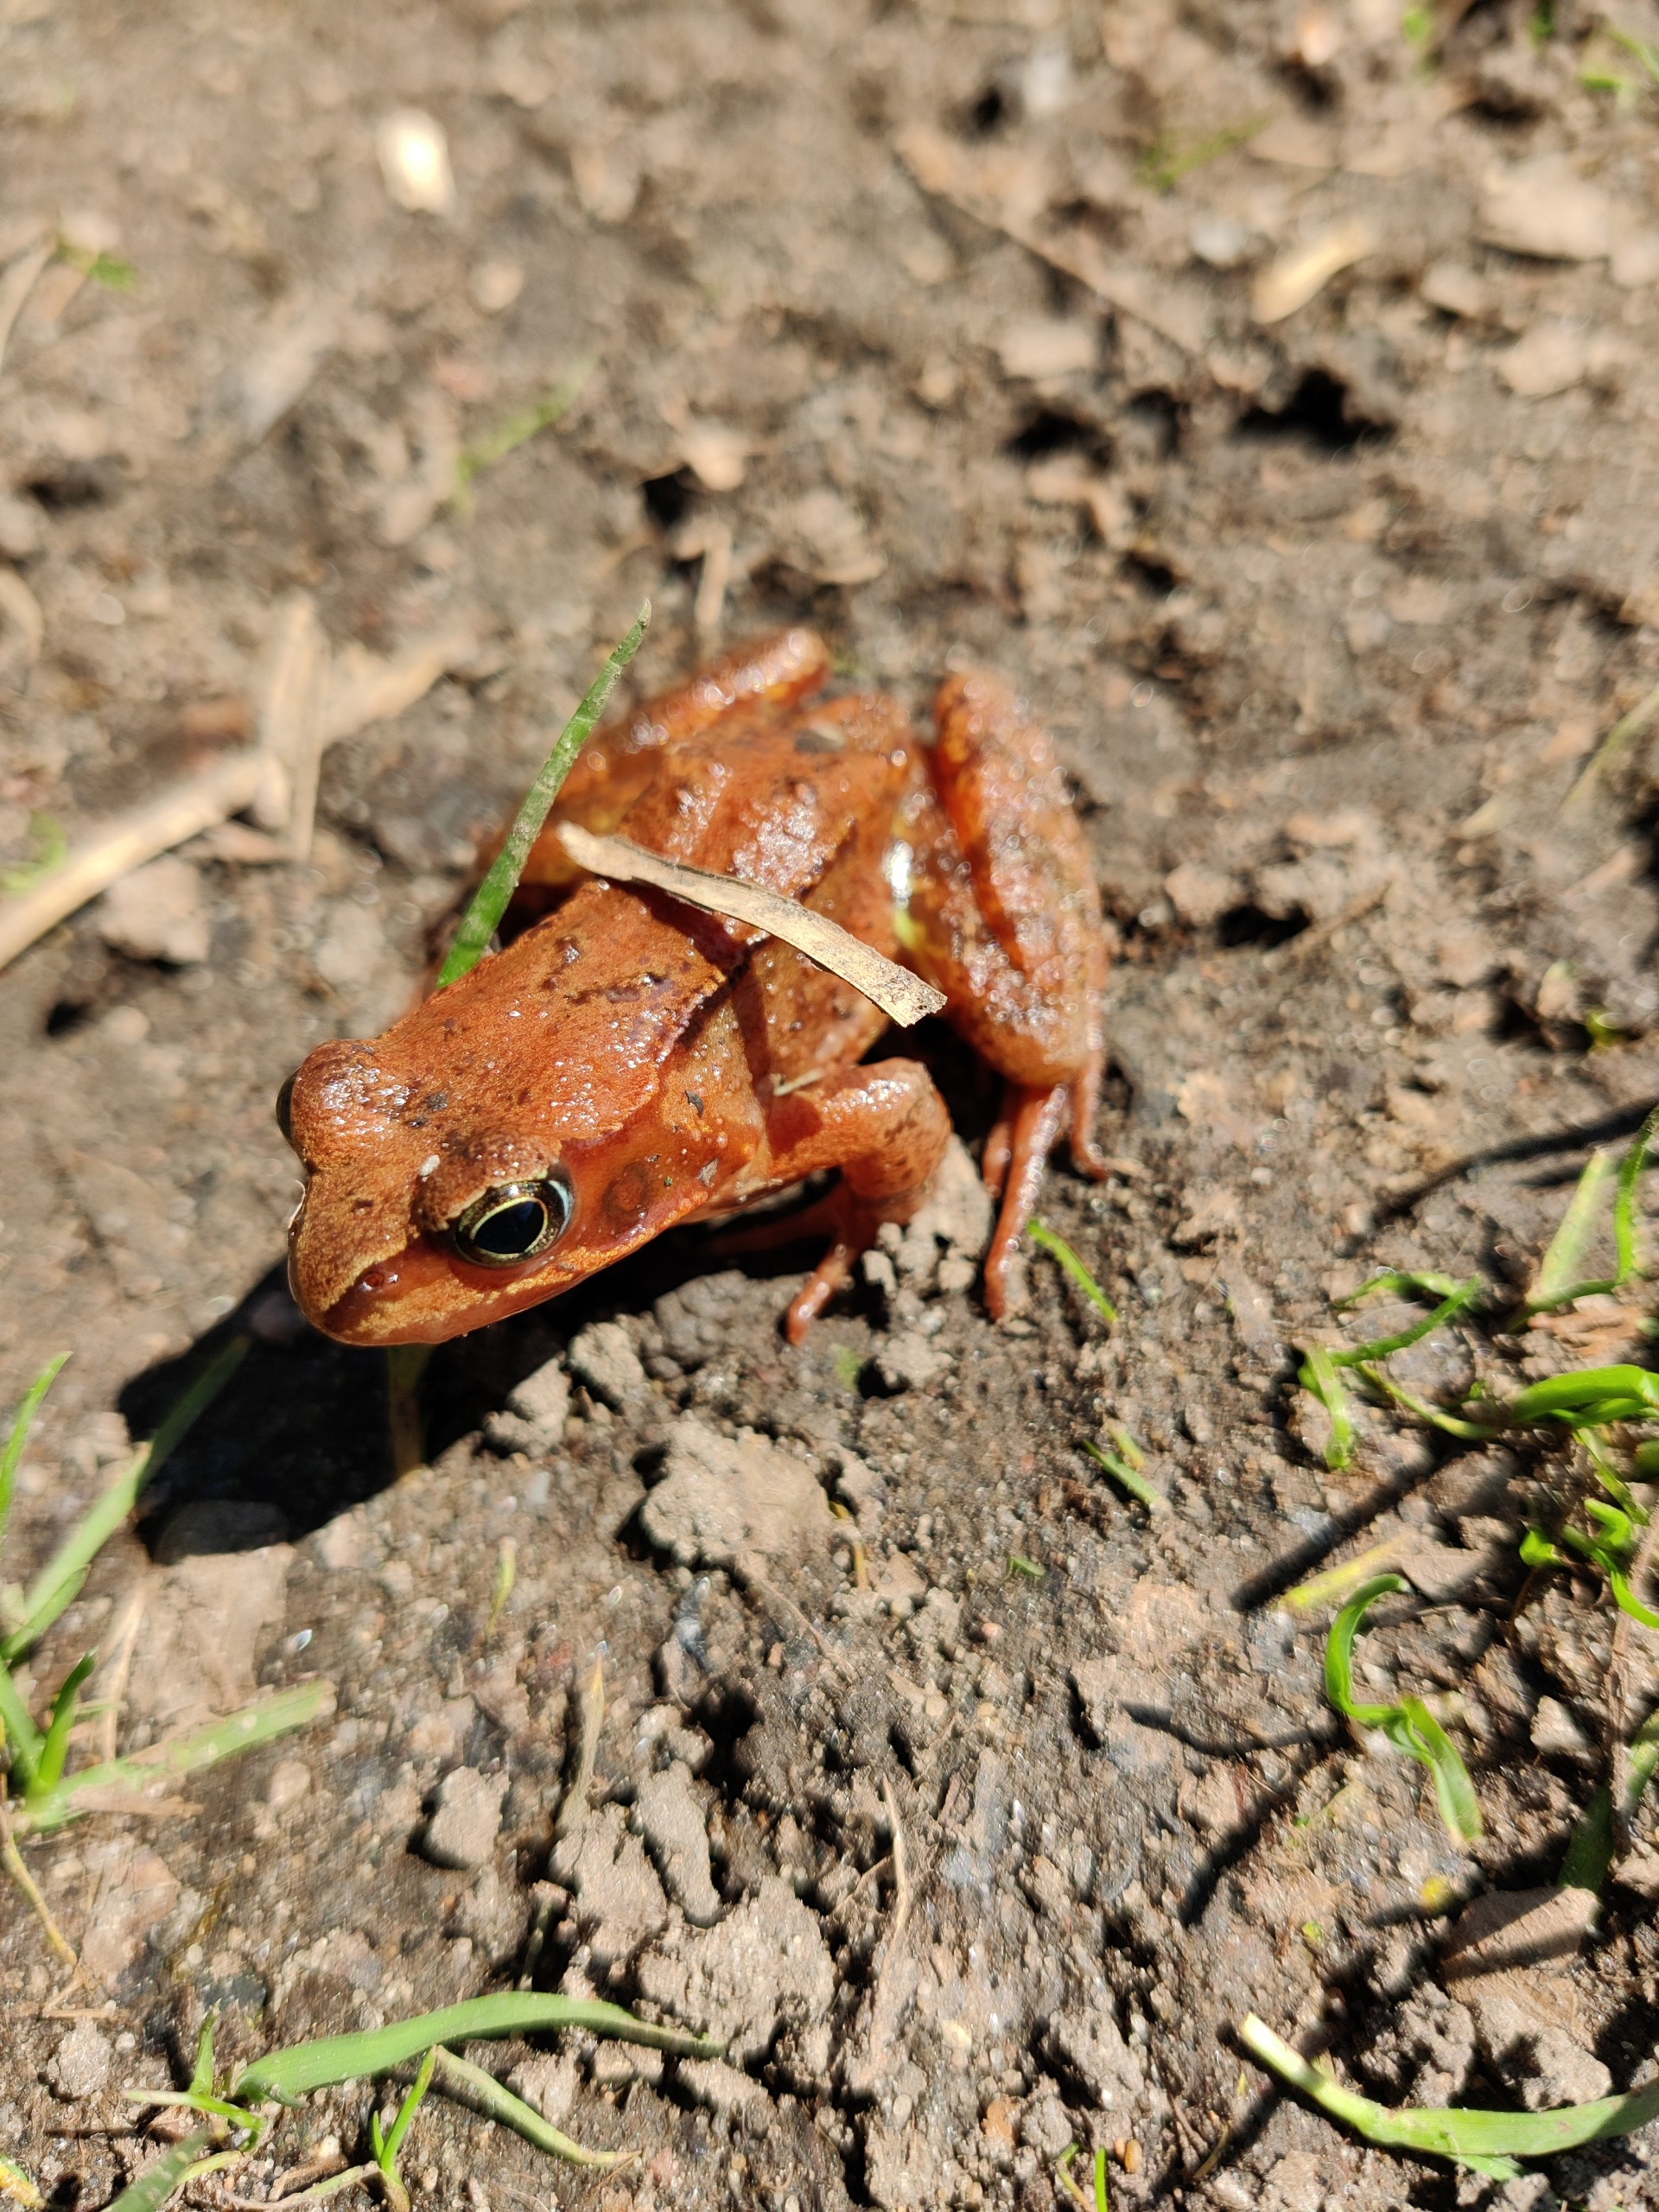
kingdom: Animalia
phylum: Chordata
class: Amphibia
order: Anura
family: Ranidae
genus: Rana
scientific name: Rana temporaria
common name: Butsnudet frø
